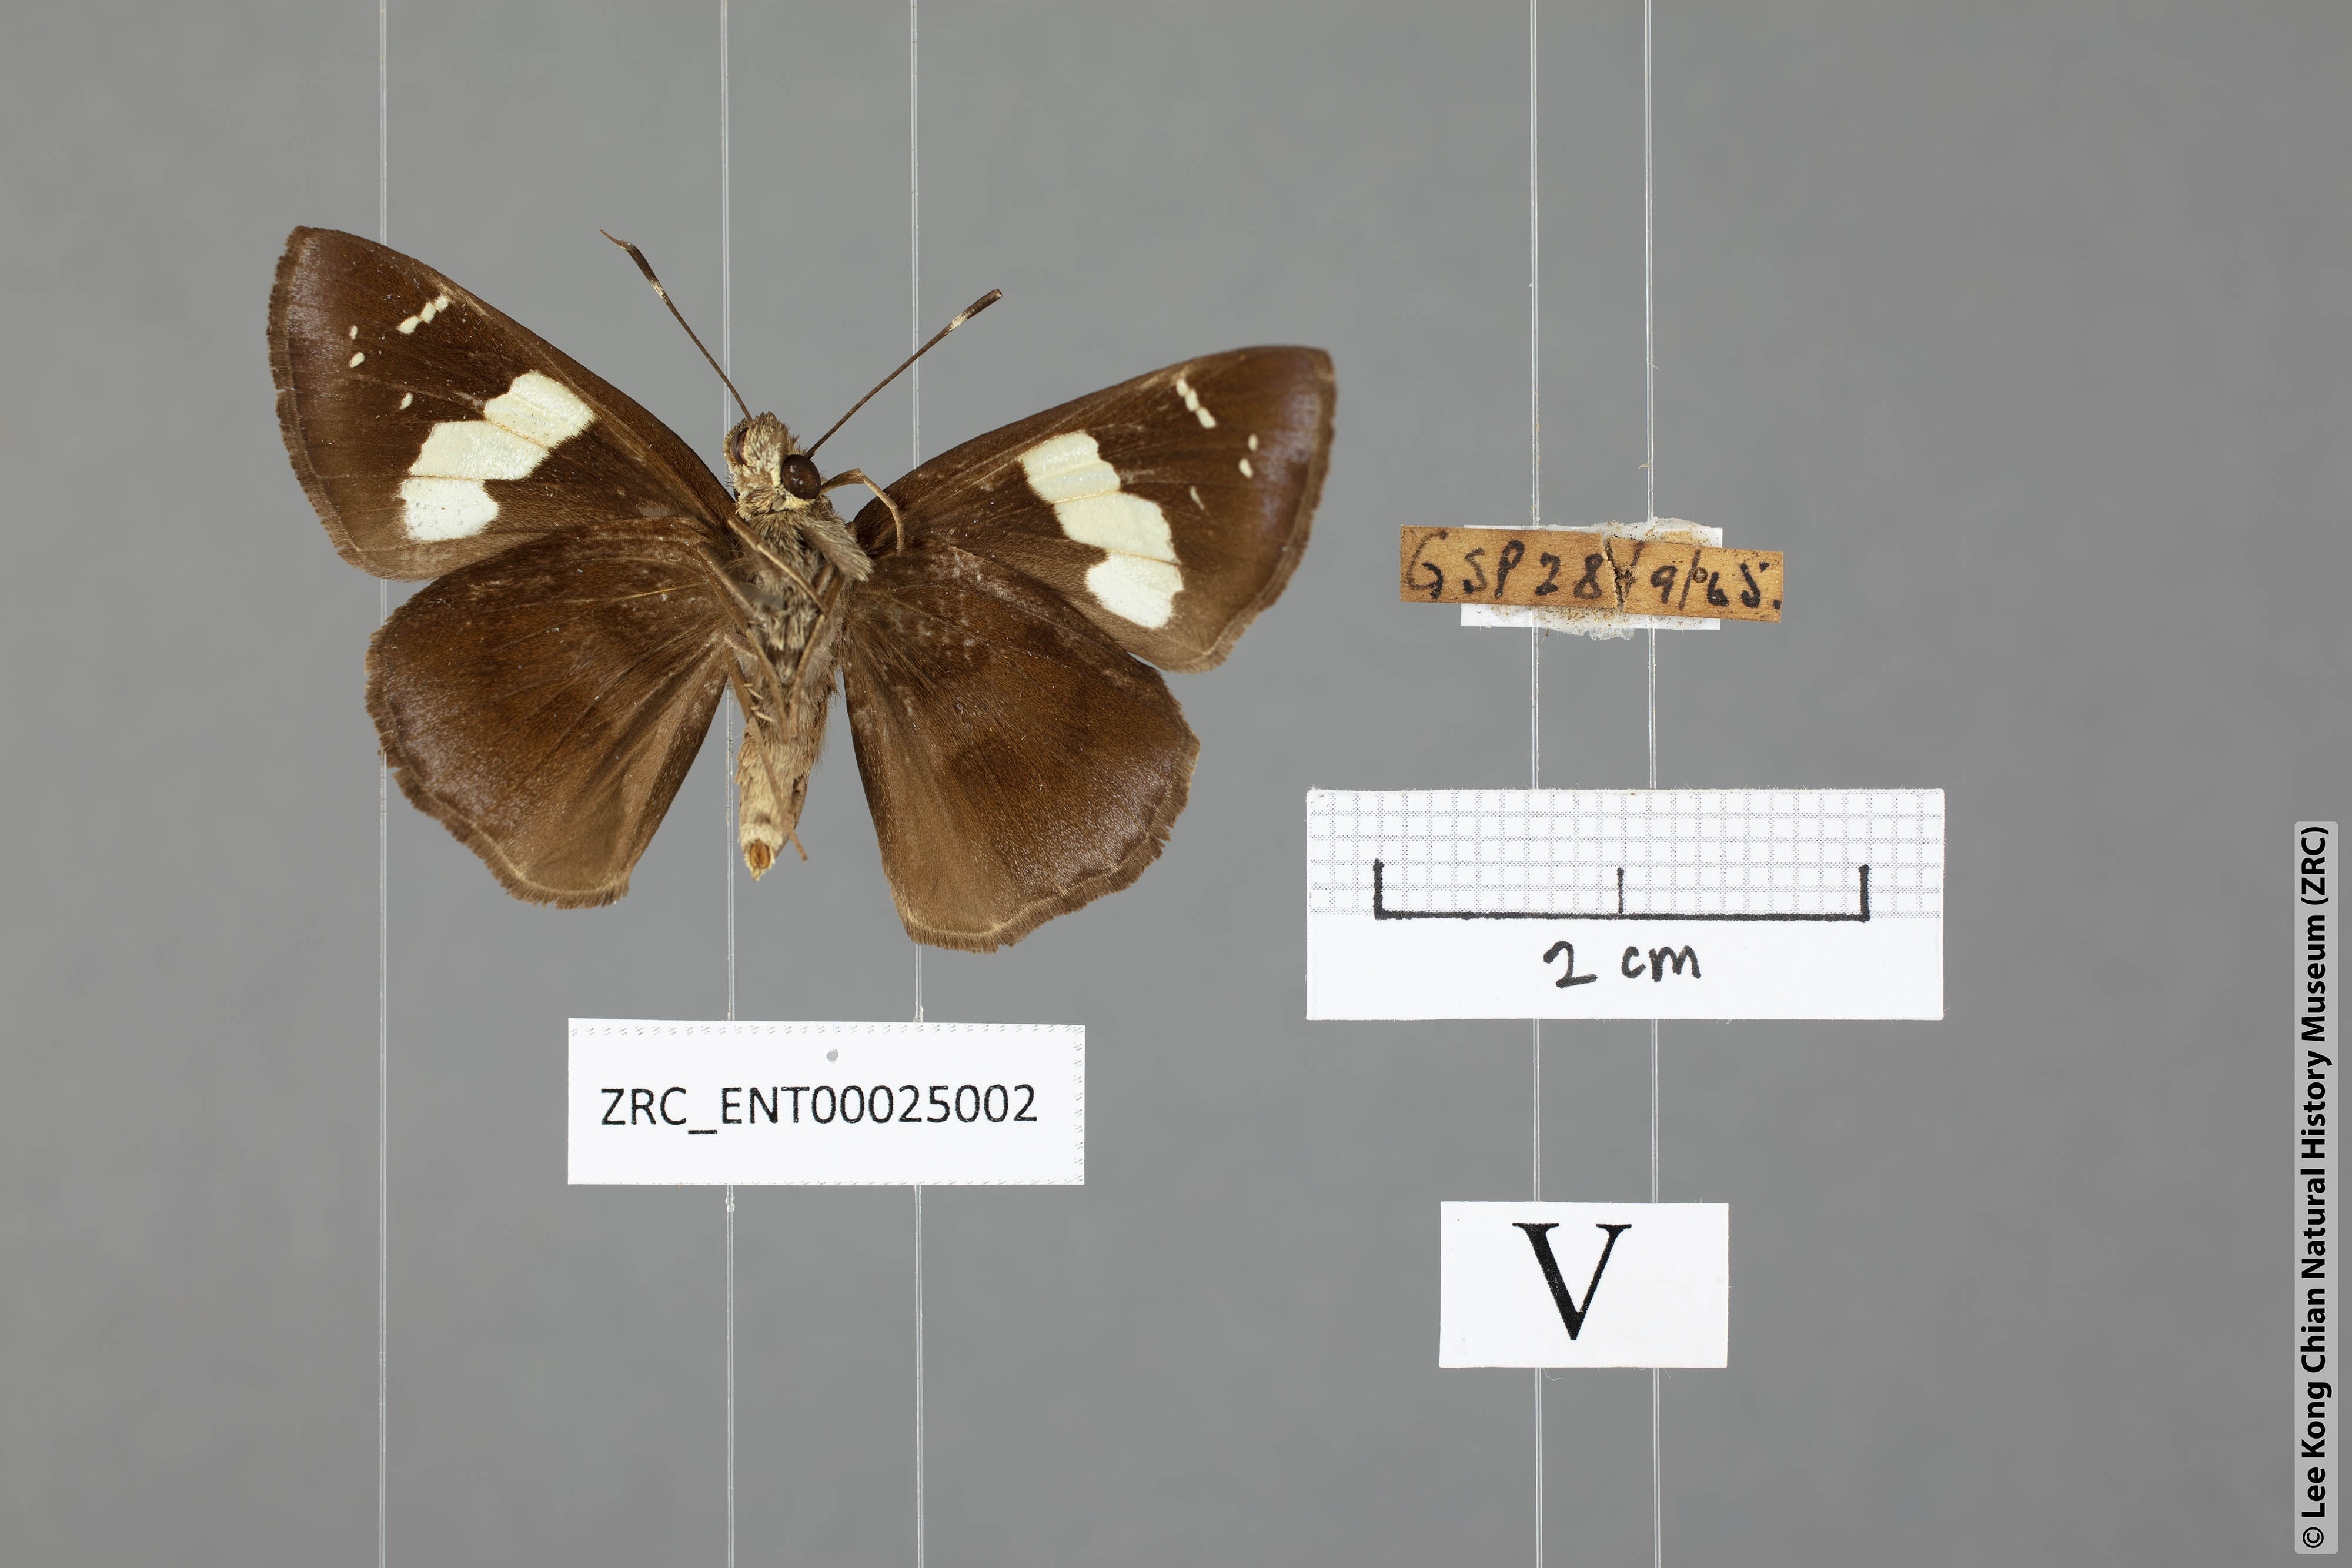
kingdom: Animalia
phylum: Arthropoda
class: Insecta
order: Lepidoptera
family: Hesperiidae
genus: Notocrypta
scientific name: Notocrypta curvifascia
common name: Restricted demon
